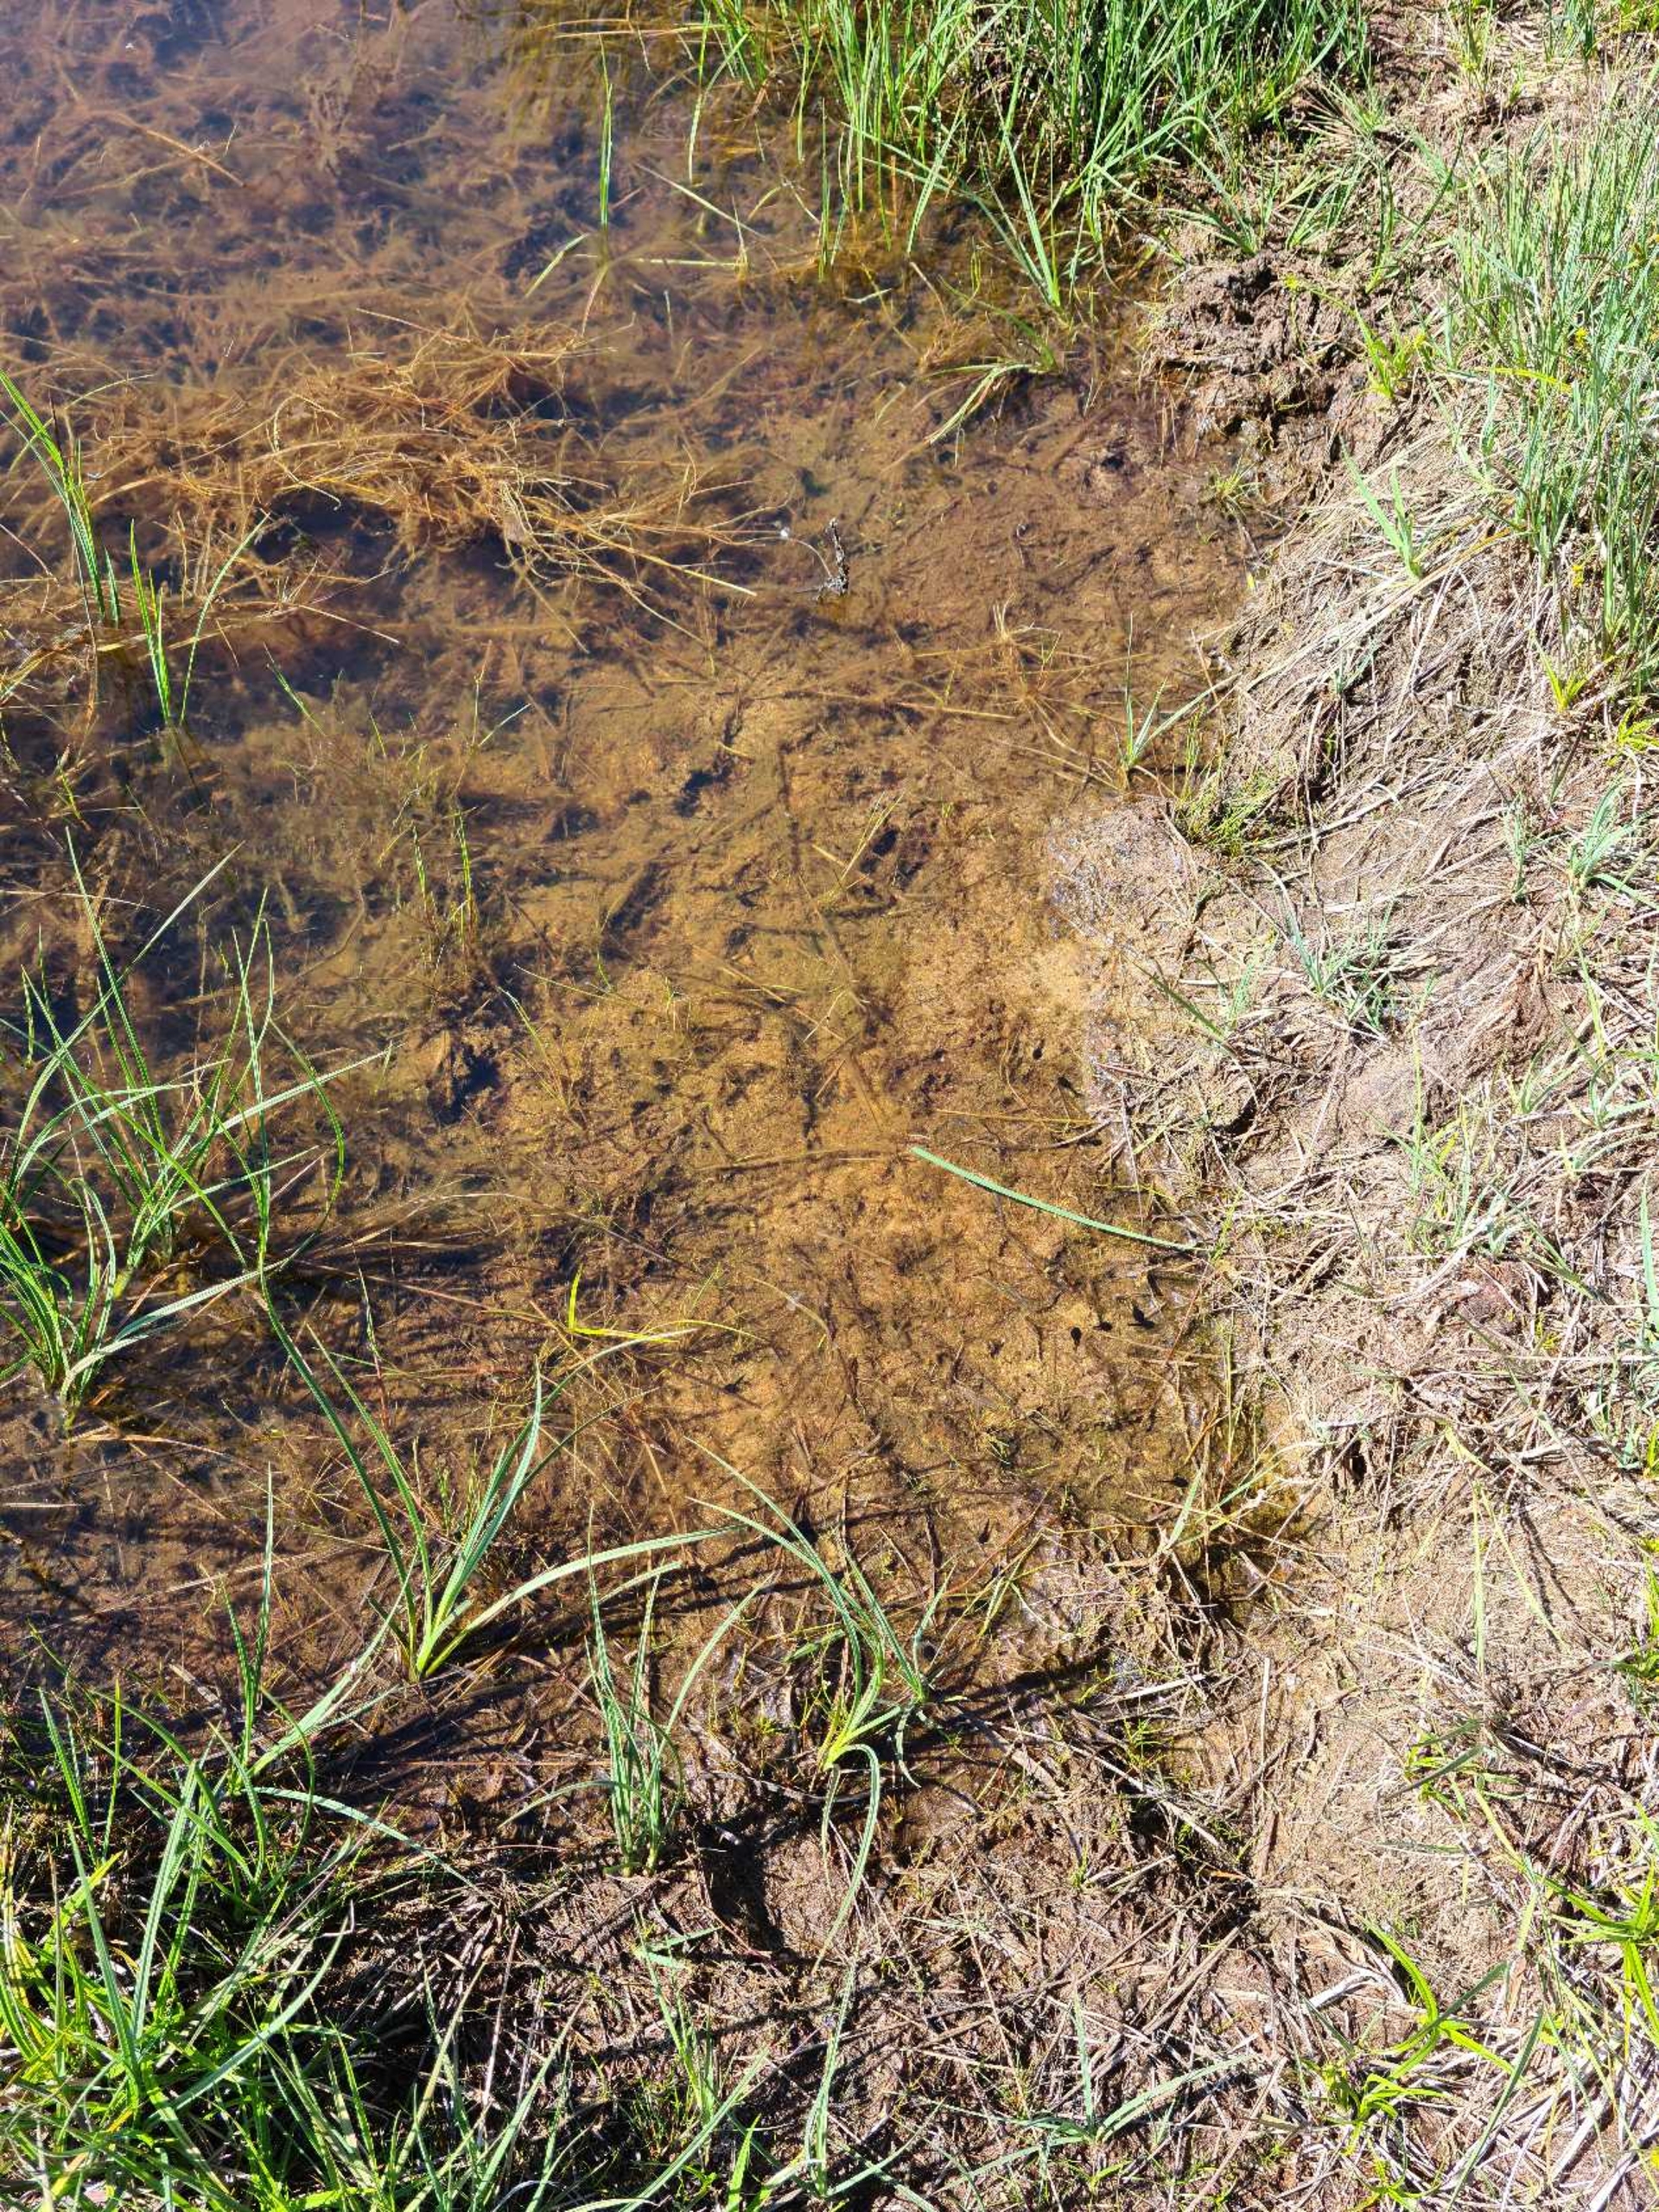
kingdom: Animalia
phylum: Chordata
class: Amphibia
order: Anura
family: Bufonidae
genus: Epidalea
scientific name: Epidalea calamita
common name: Strandtudse
